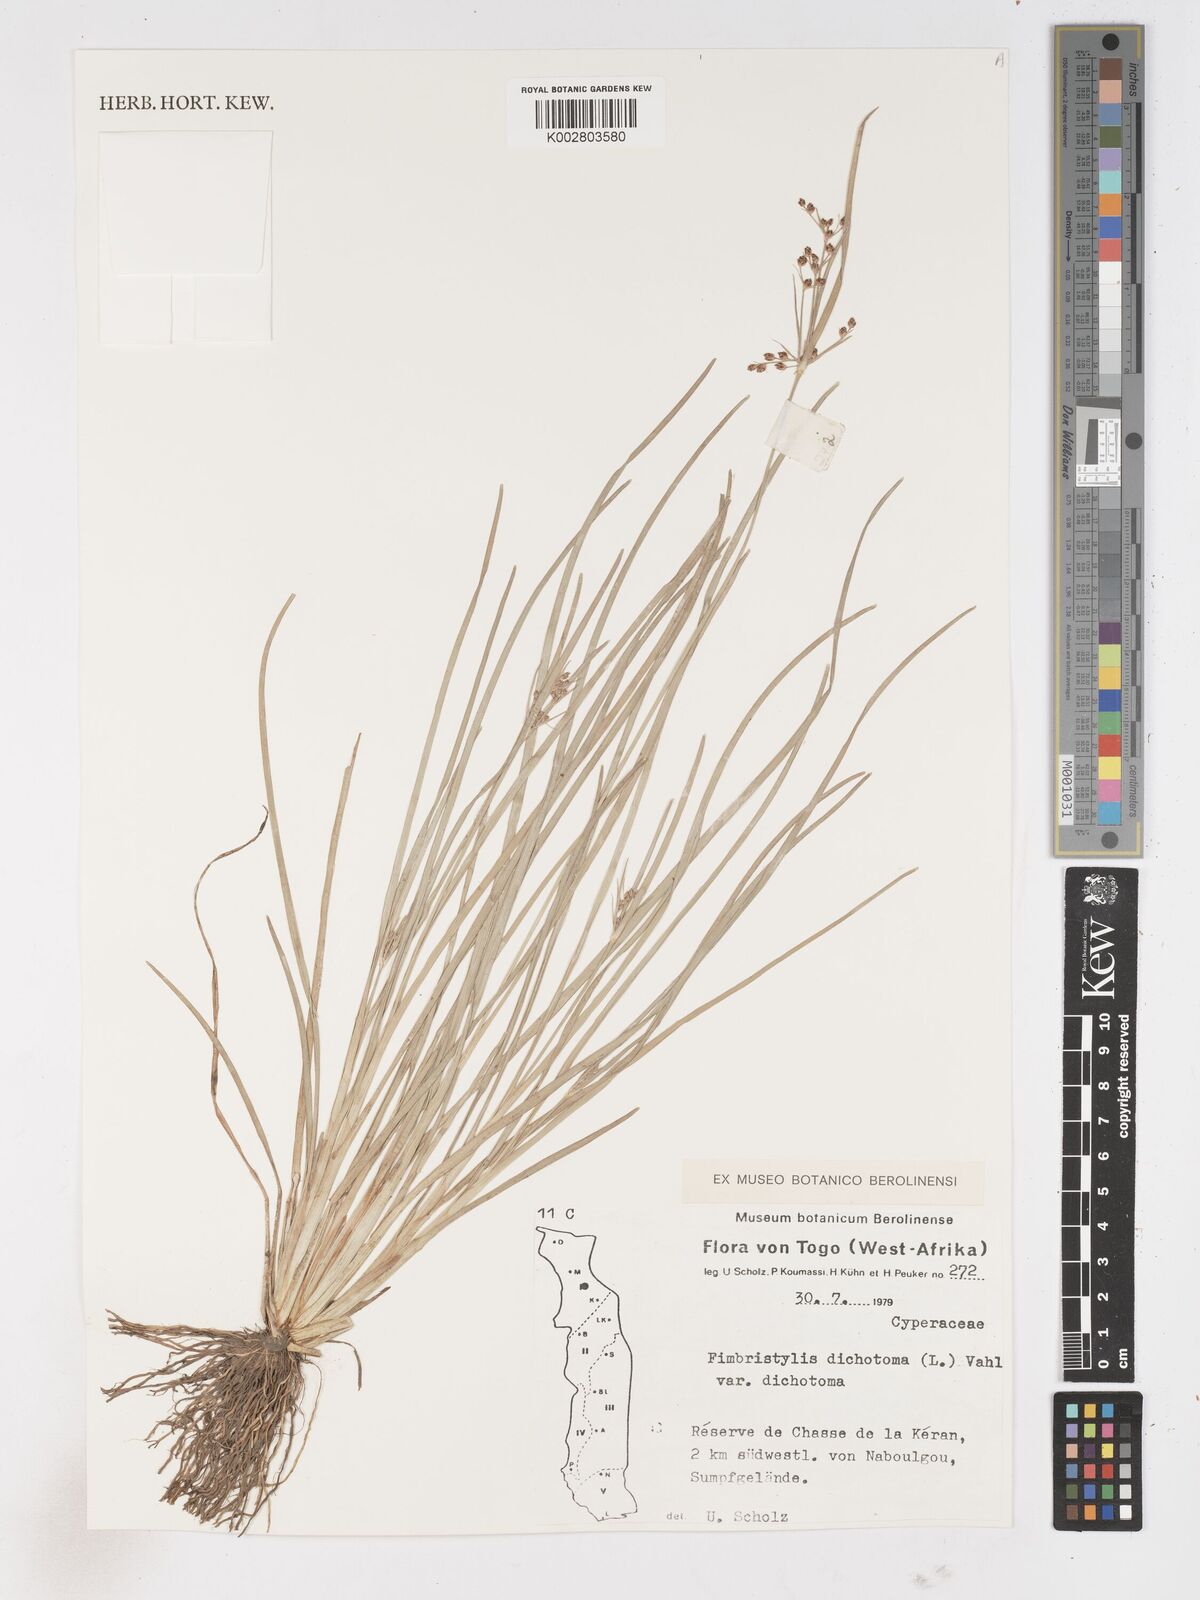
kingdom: Plantae
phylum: Tracheophyta
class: Liliopsida
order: Poales
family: Cyperaceae
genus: Fimbristylis
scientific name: Fimbristylis dichotoma
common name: Forked fimbry
